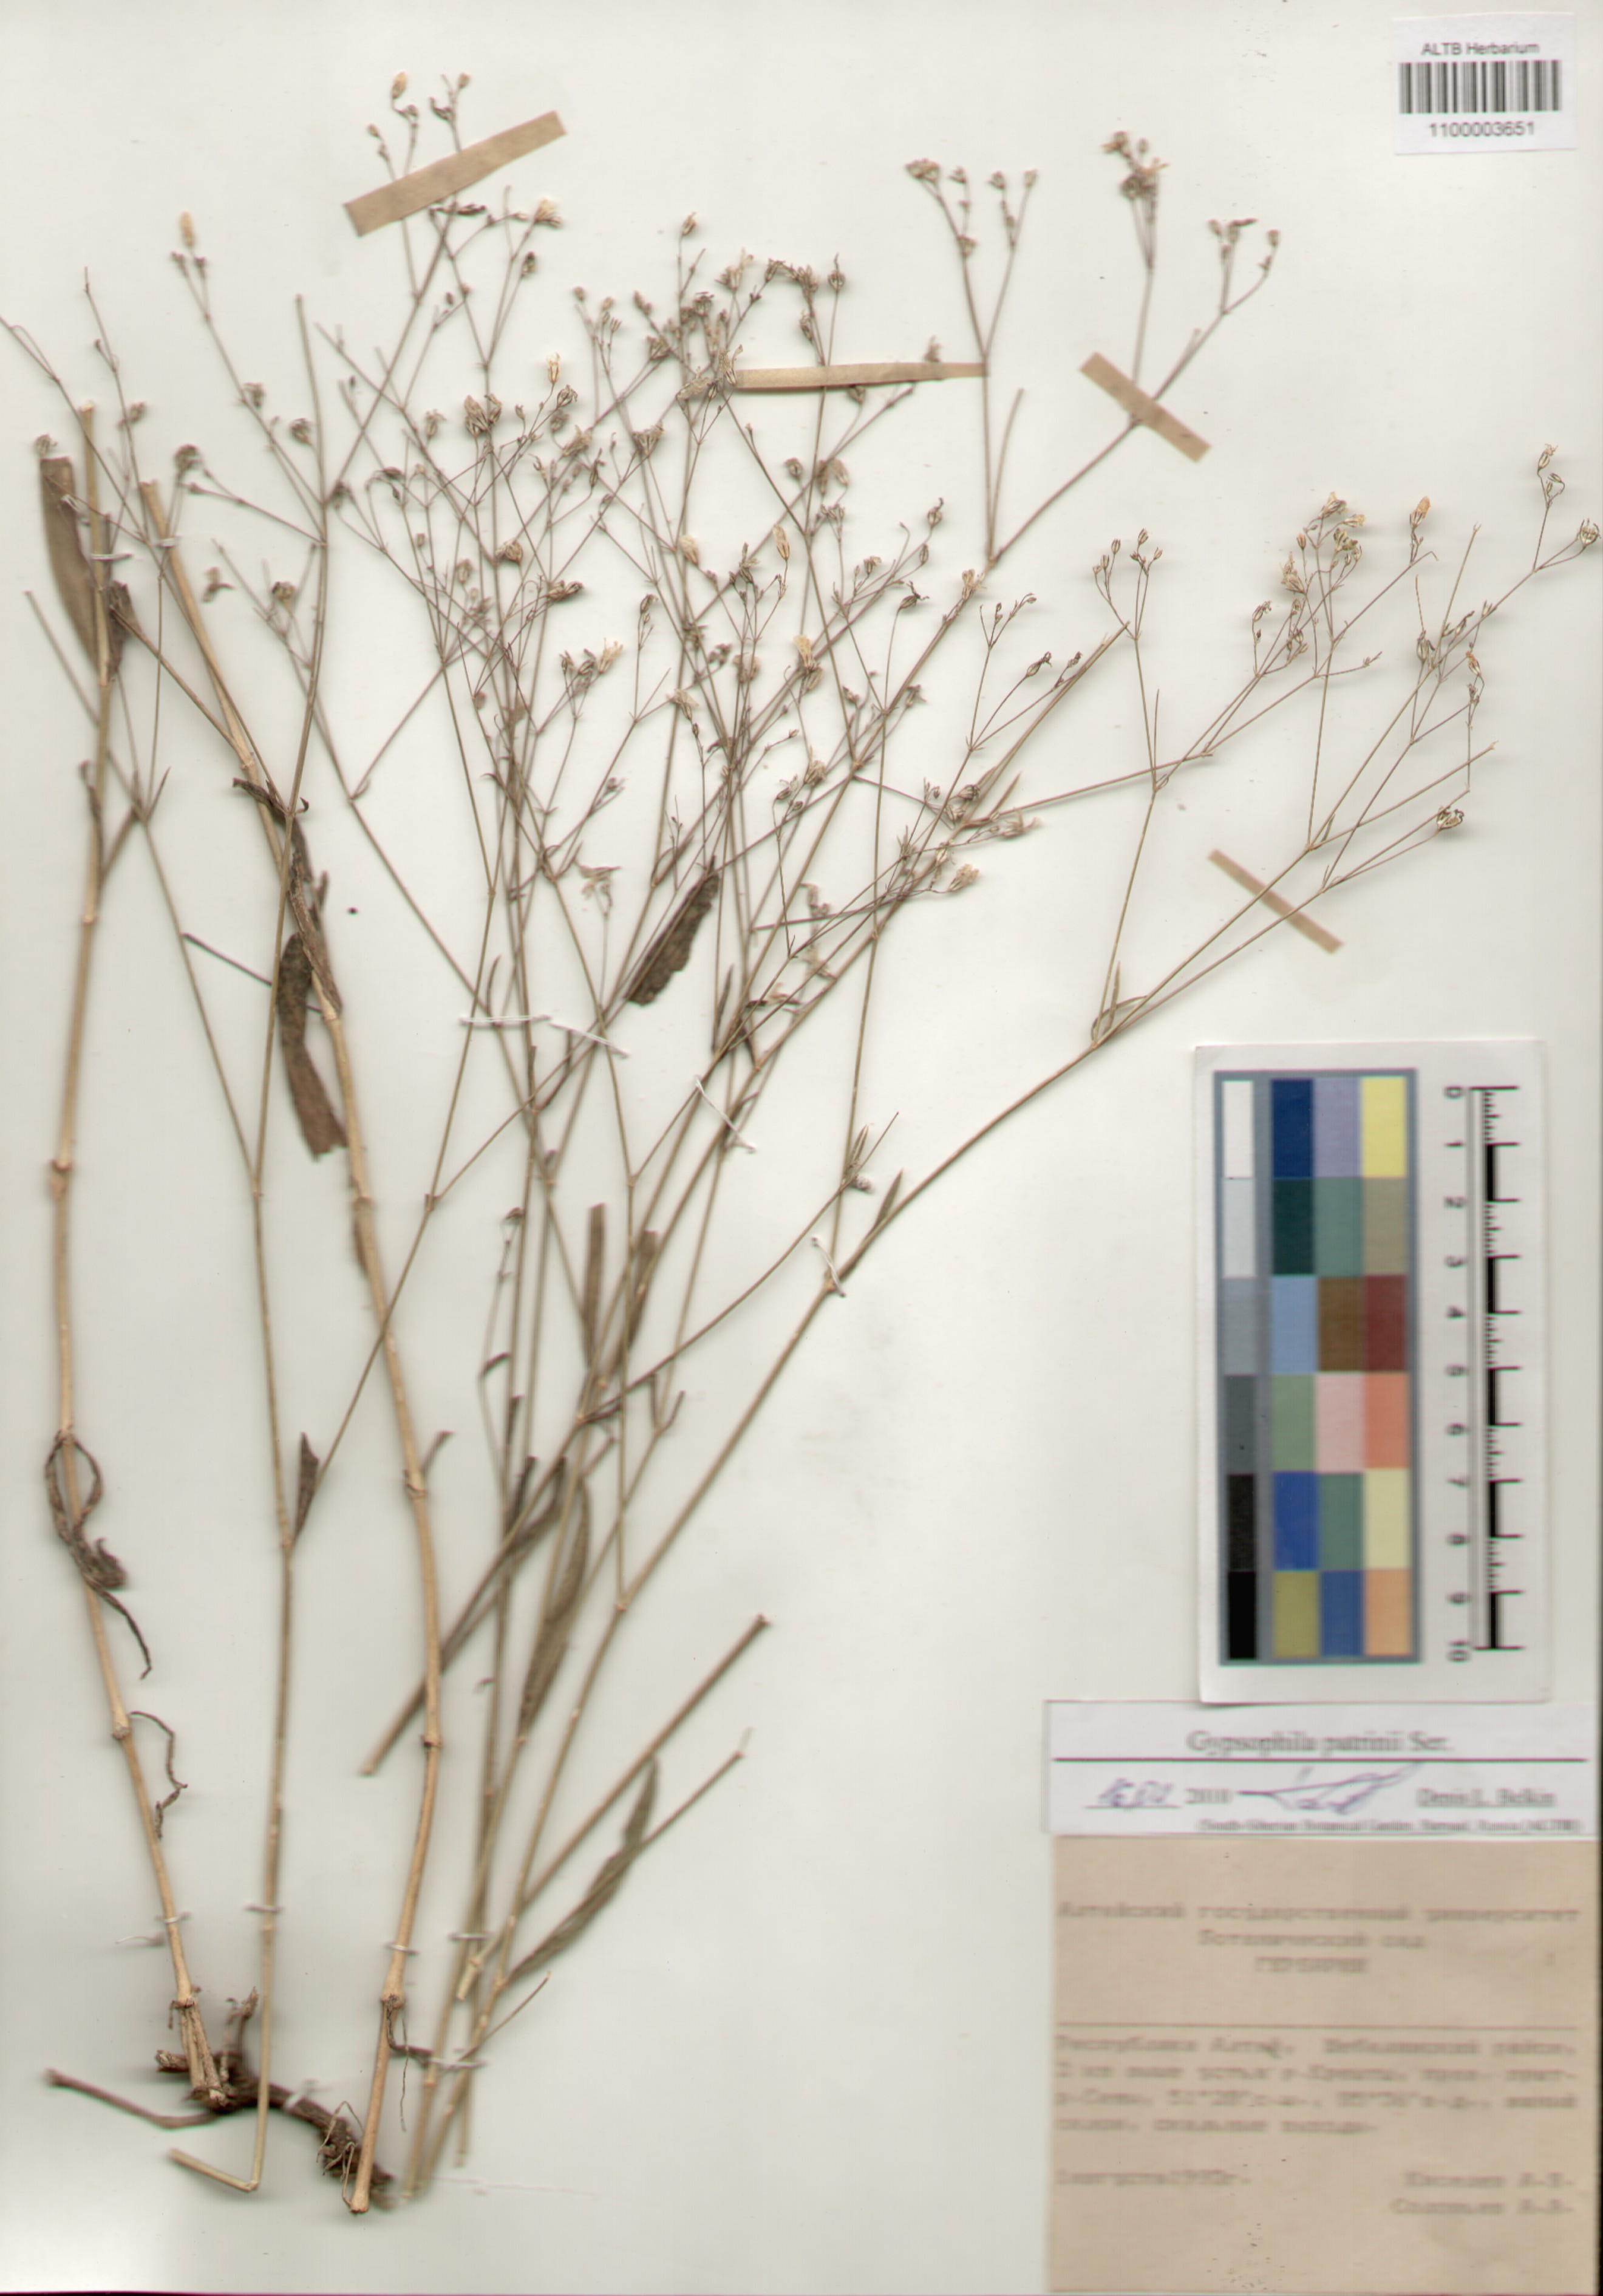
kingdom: Plantae
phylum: Tracheophyta
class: Magnoliopsida
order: Caryophyllales
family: Caryophyllaceae
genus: Gypsophila
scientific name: Gypsophila patrinii
